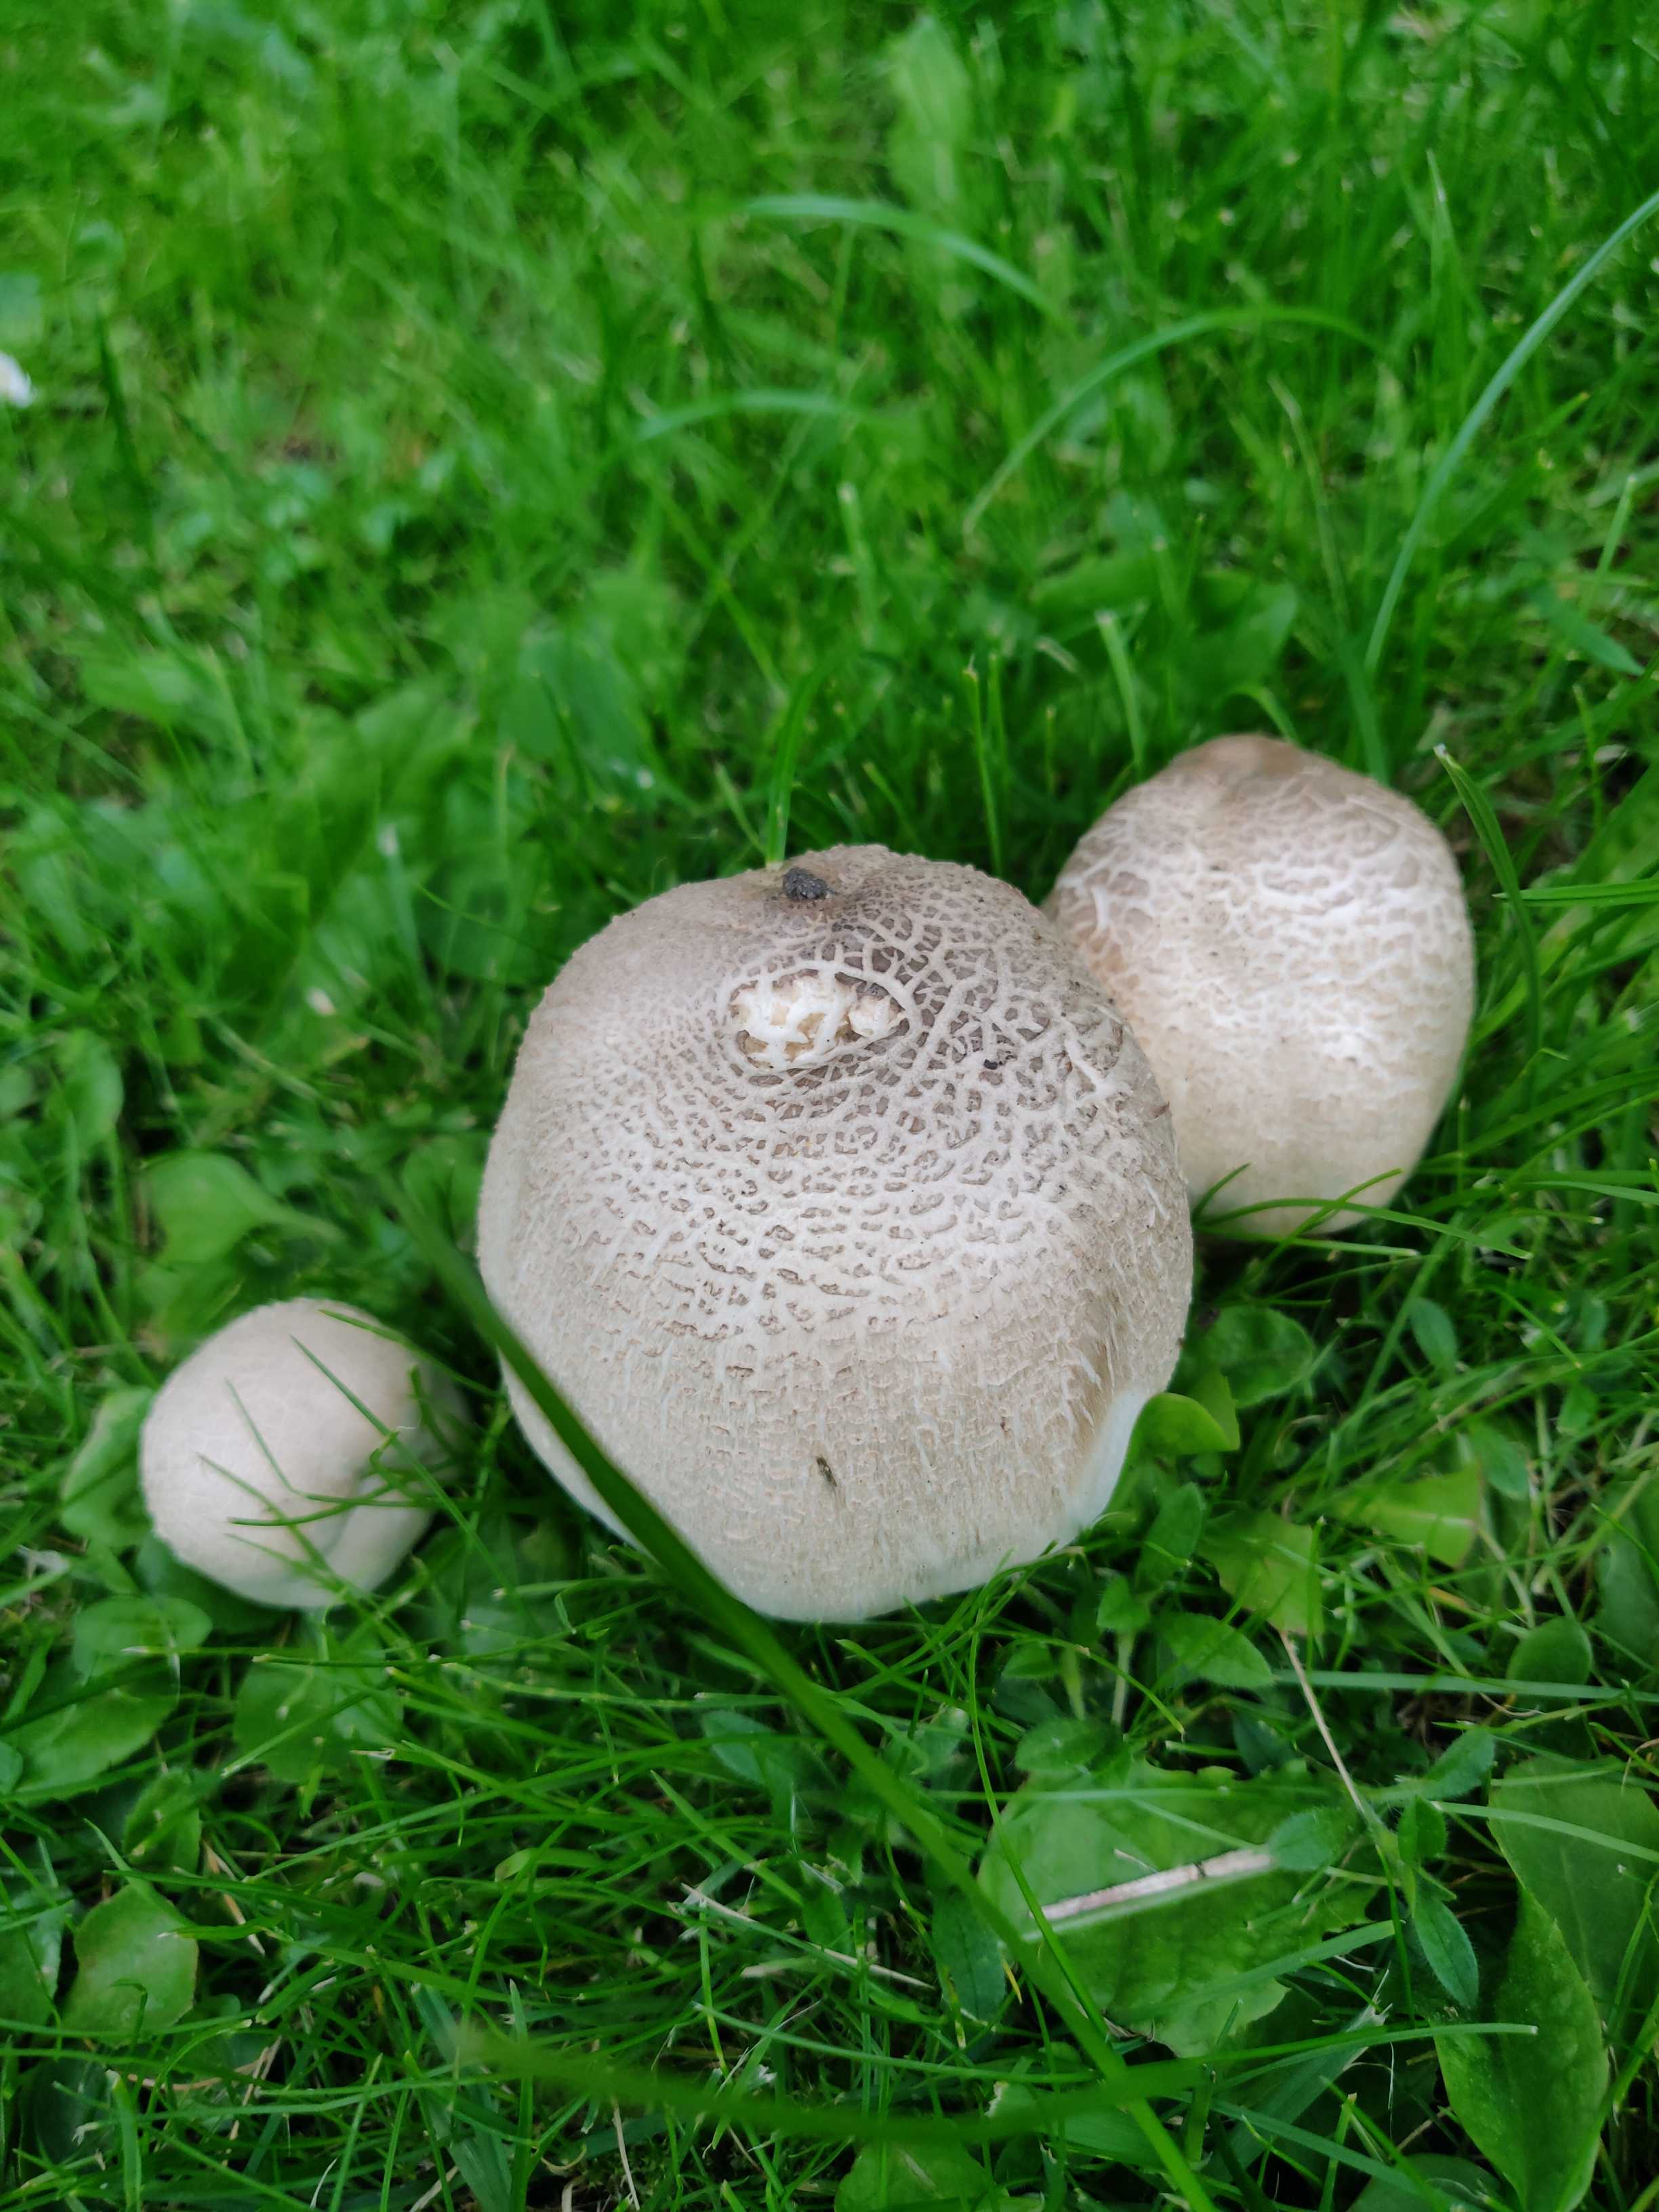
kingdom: Fungi
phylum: Basidiomycota
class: Agaricomycetes
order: Agaricales
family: Agaricaceae
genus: Agaricus
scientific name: Agaricus xanthodermus
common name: karbol-champignon
